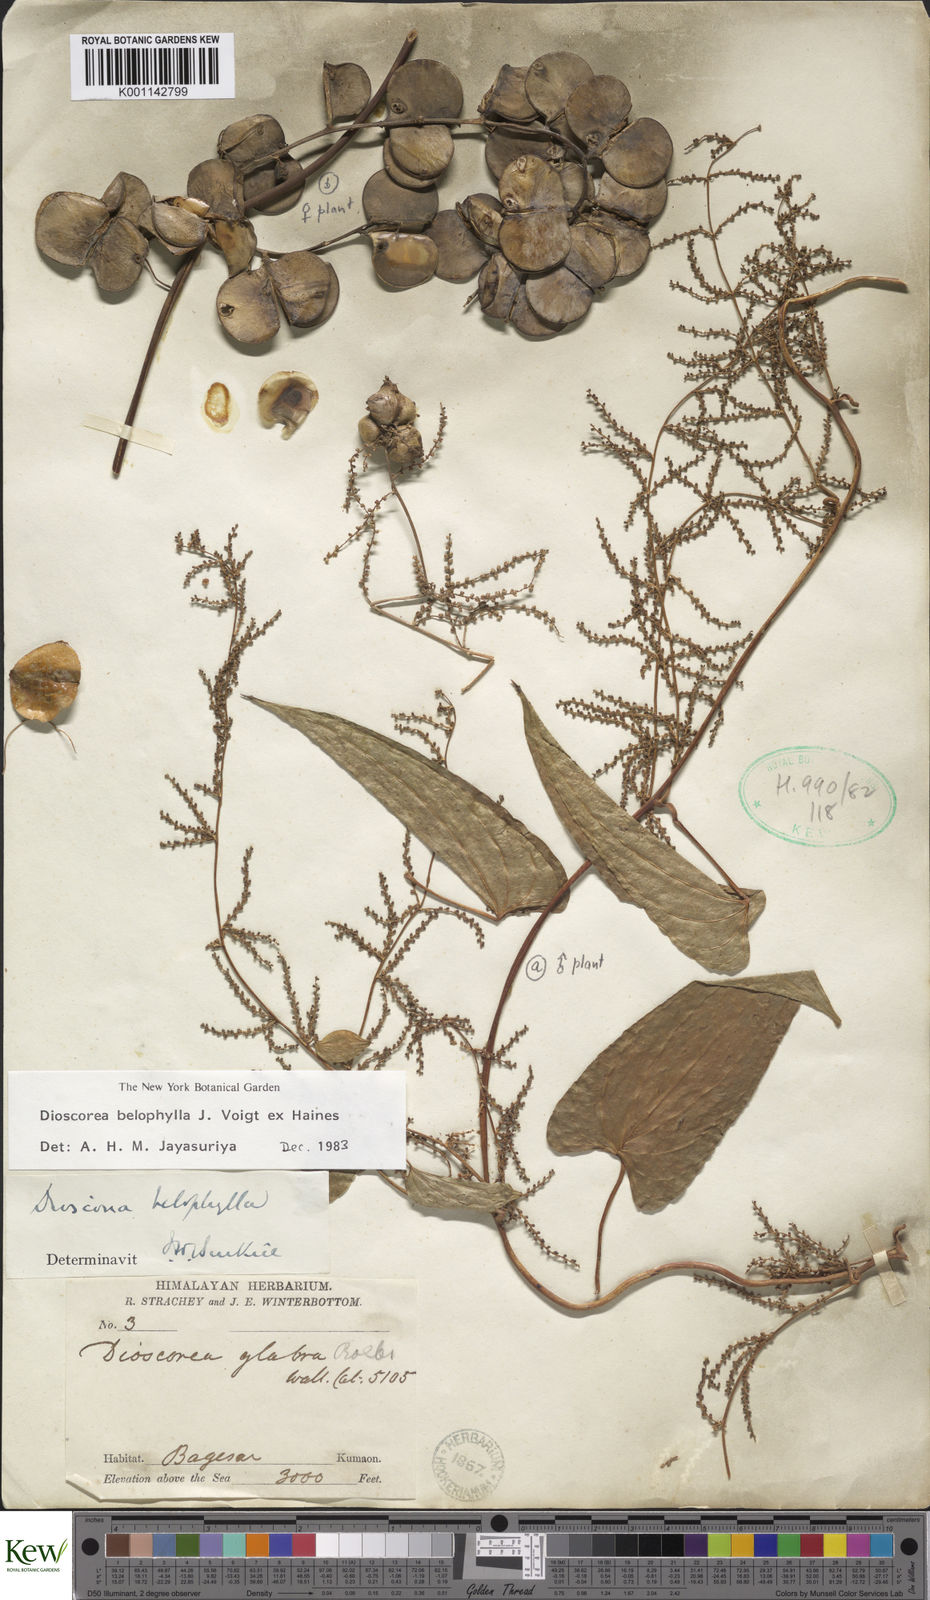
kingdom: Plantae
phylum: Tracheophyta
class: Liliopsida
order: Dioscoreales
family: Dioscoreaceae
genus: Dioscorea
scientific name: Dioscorea belophylla
